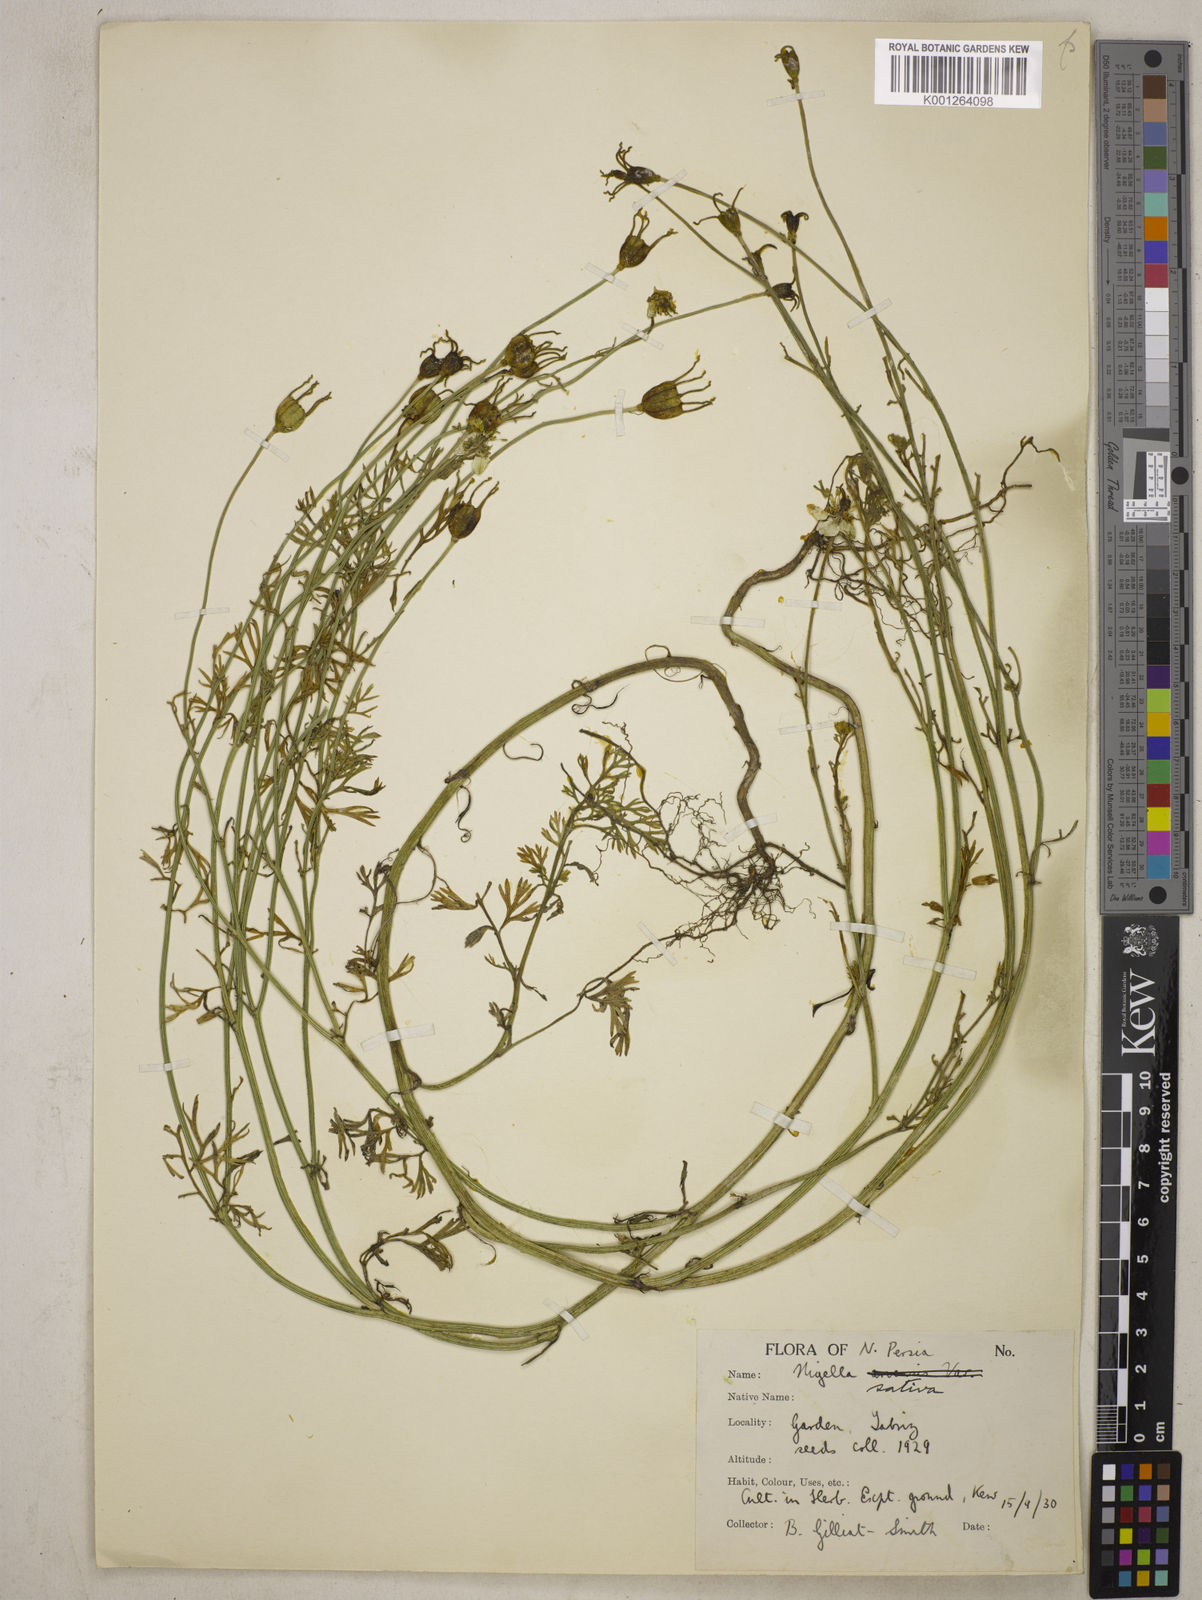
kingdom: Plantae
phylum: Tracheophyta
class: Magnoliopsida
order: Ranunculales
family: Ranunculaceae
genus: Nigella
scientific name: Nigella sativa
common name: Black-cumin
